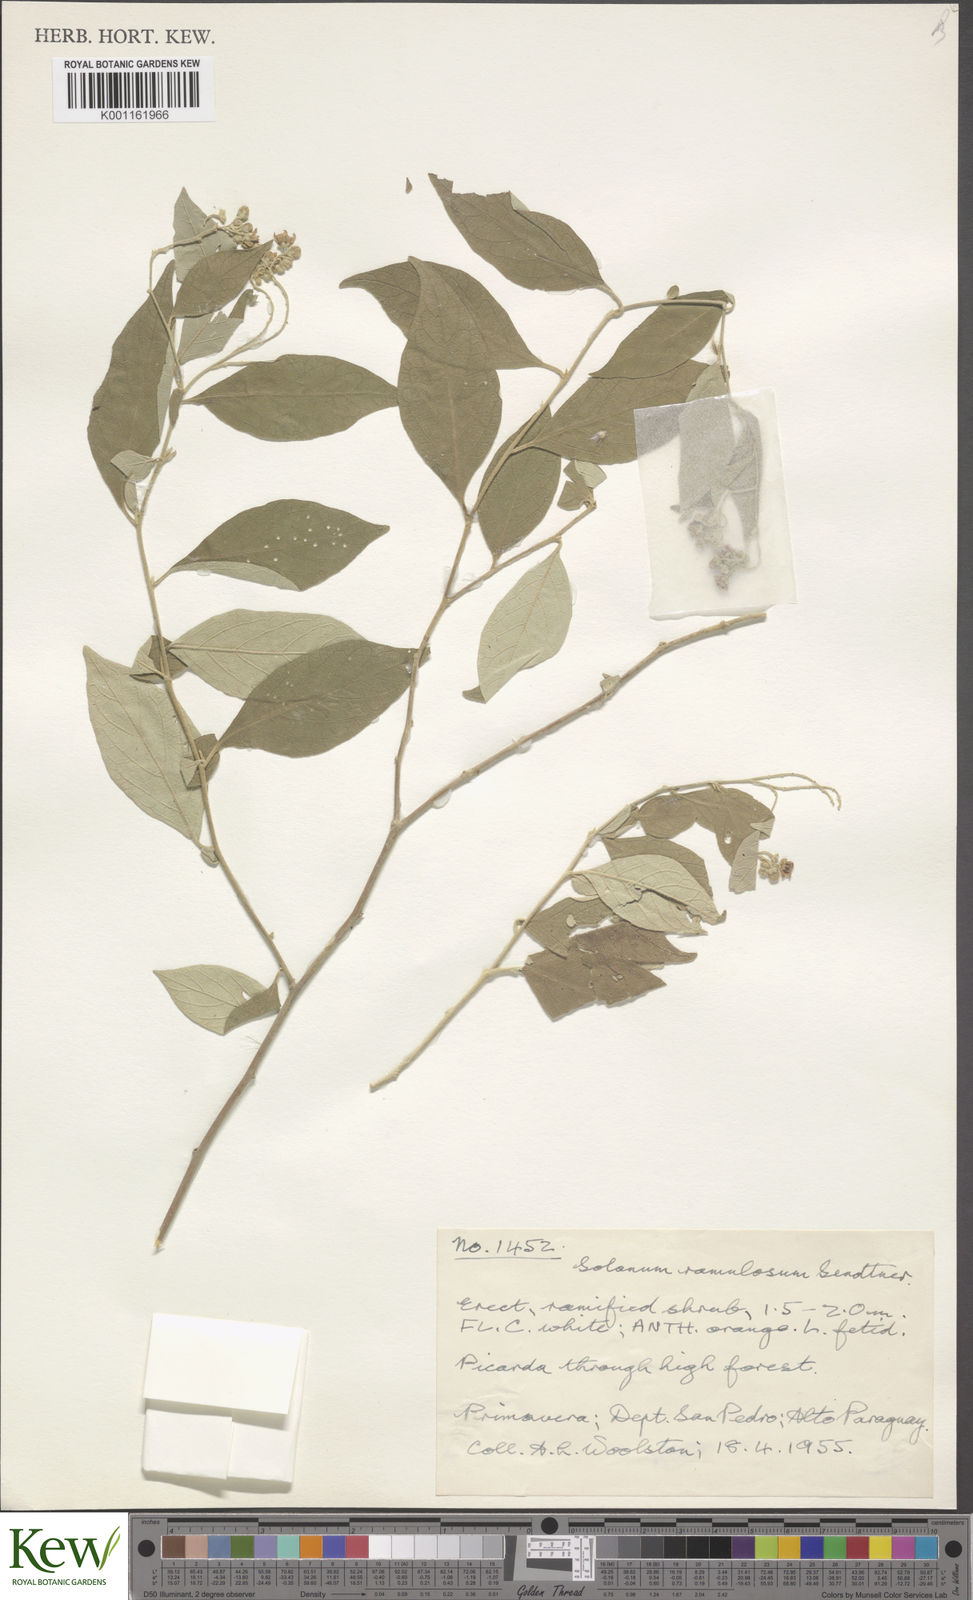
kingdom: Plantae
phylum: Tracheophyta
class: Magnoliopsida
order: Solanales
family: Solanaceae
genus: Solanum
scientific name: Solanum ramulosum
